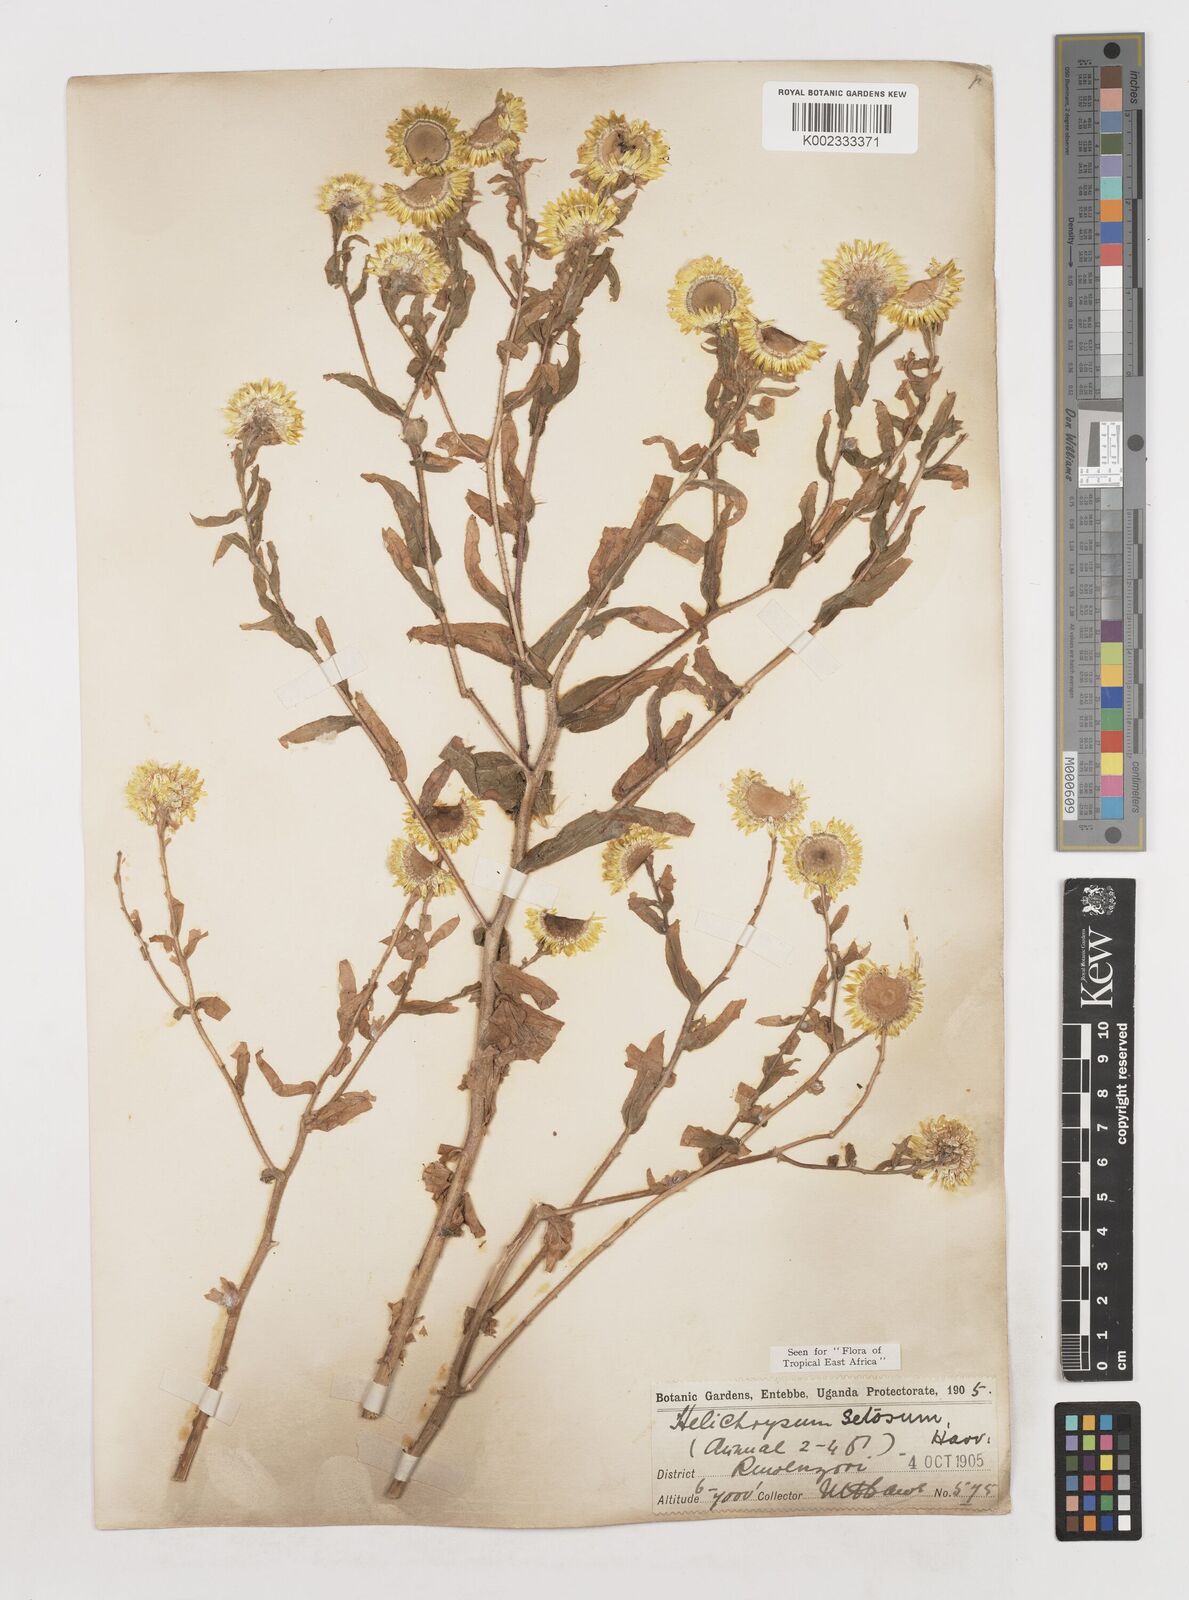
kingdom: Plantae
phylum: Tracheophyta
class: Magnoliopsida
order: Asterales
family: Asteraceae
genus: Helichrysum
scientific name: Helichrysum setosum
